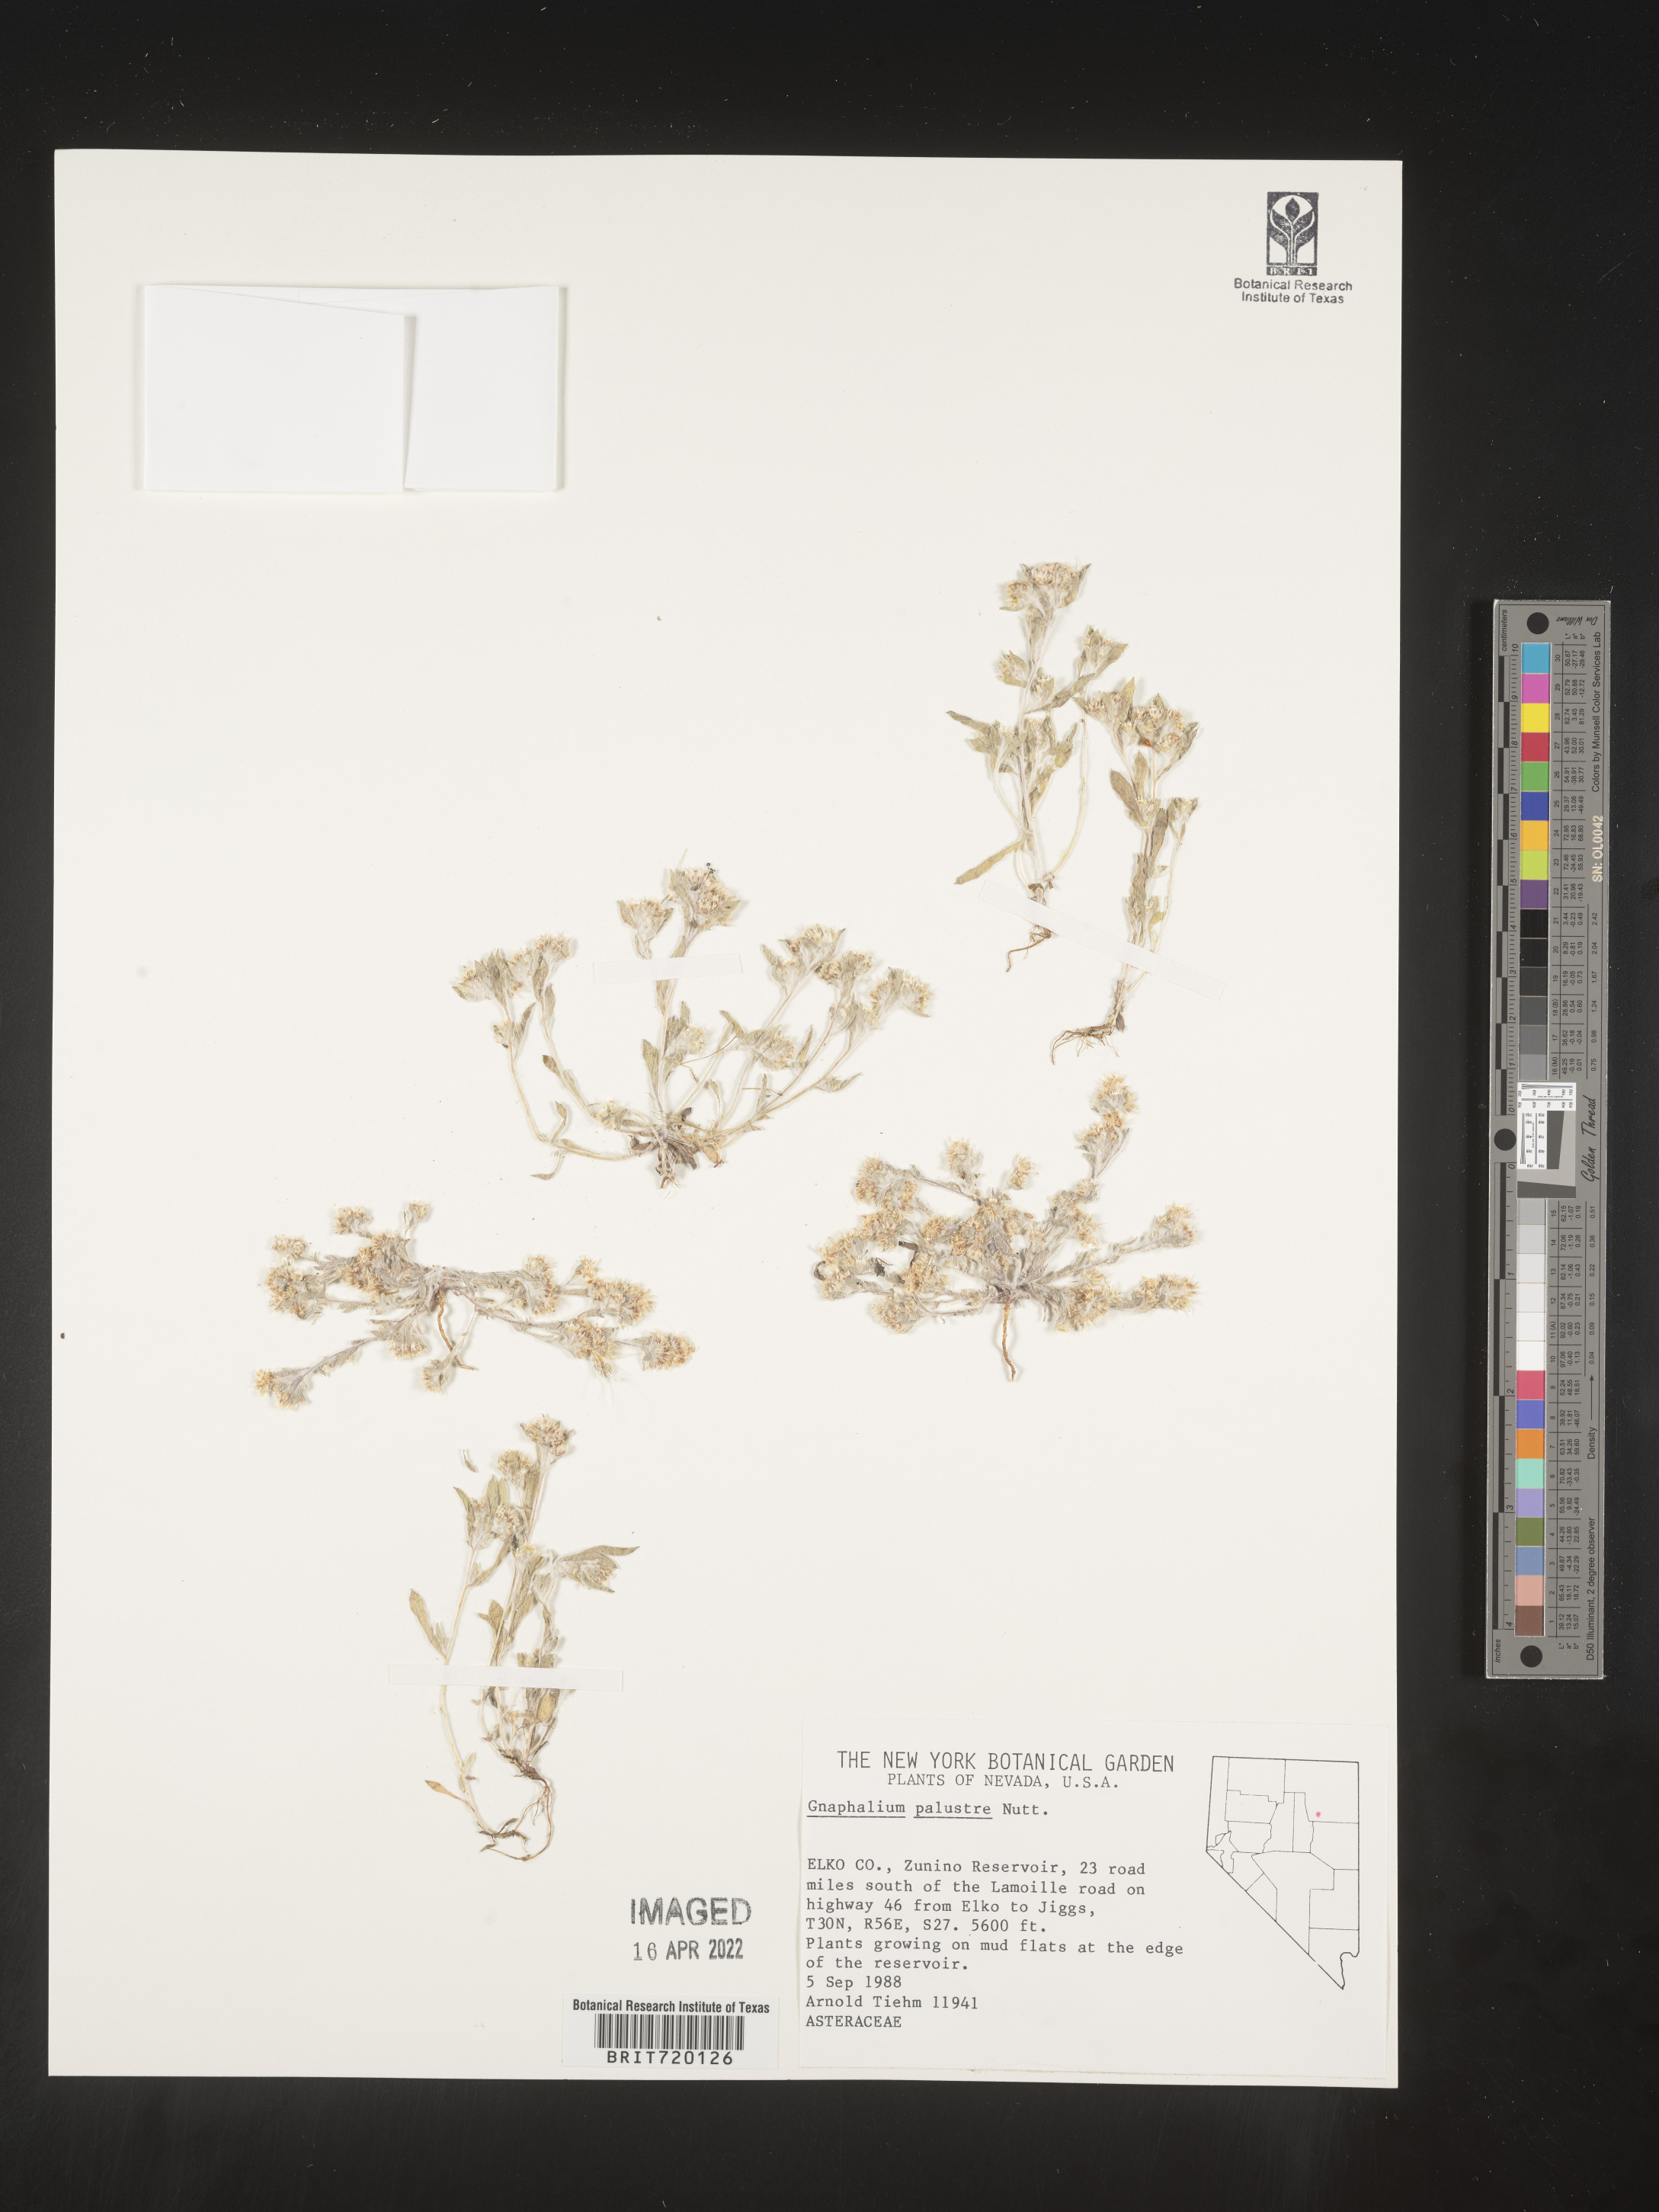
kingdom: Plantae
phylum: Tracheophyta
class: Magnoliopsida
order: Asterales
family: Asteraceae
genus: Gnaphalium
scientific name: Gnaphalium palustre
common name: Western marsh cudweed
